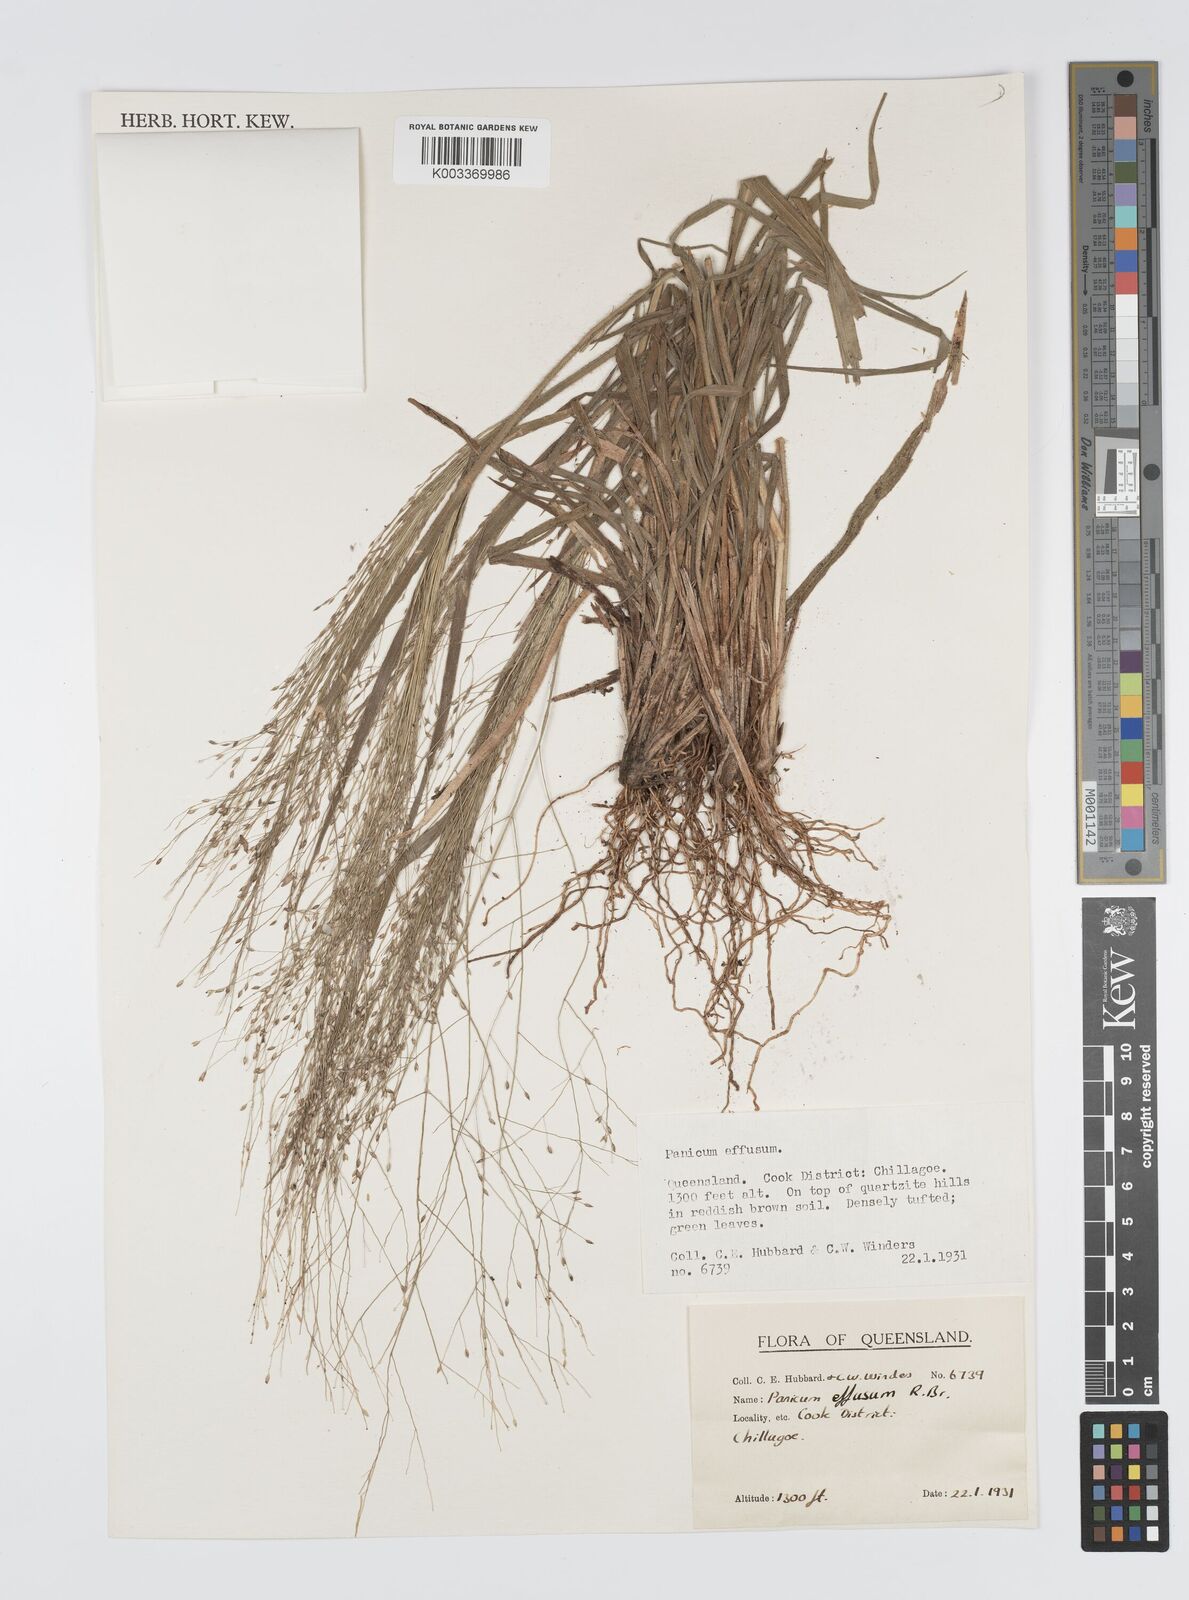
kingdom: Plantae
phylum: Tracheophyta
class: Liliopsida
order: Poales
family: Poaceae
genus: Panicum
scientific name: Panicum effusum
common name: Hairy panic grass
